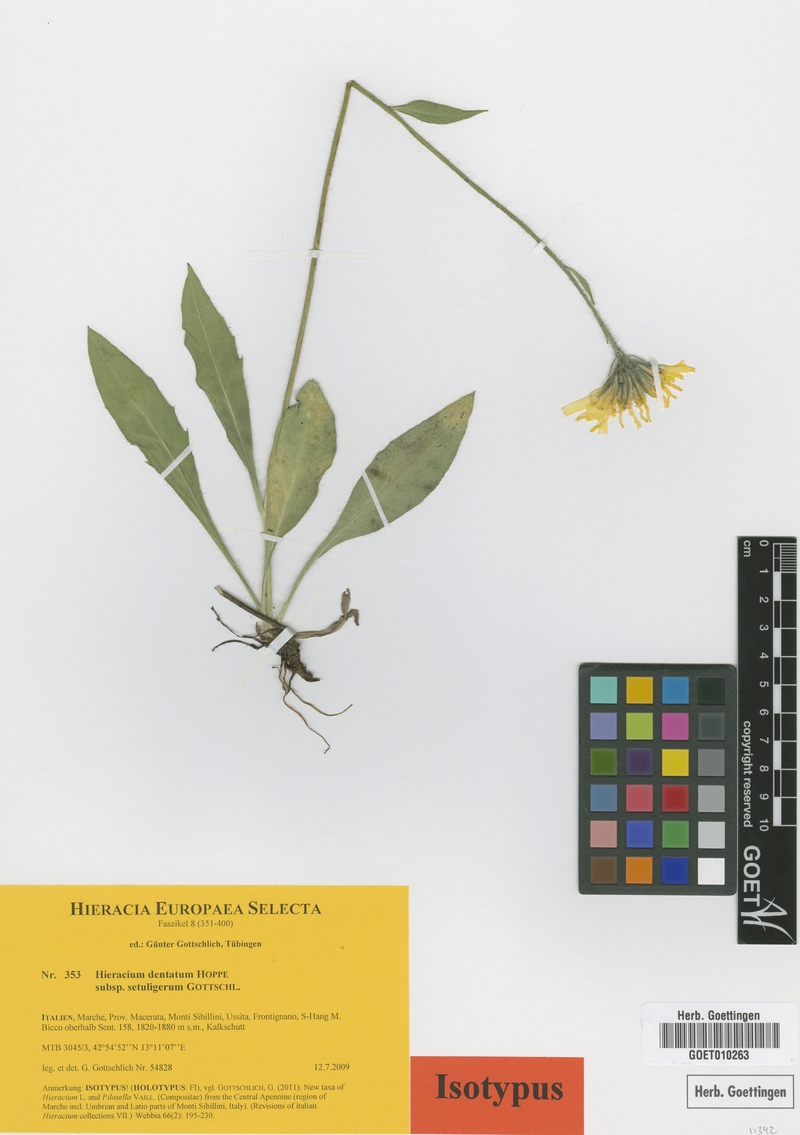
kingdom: Plantae
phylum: Tracheophyta
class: Magnoliopsida
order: Asterales
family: Asteraceae
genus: Hieracium
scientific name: Hieracium dentatum
